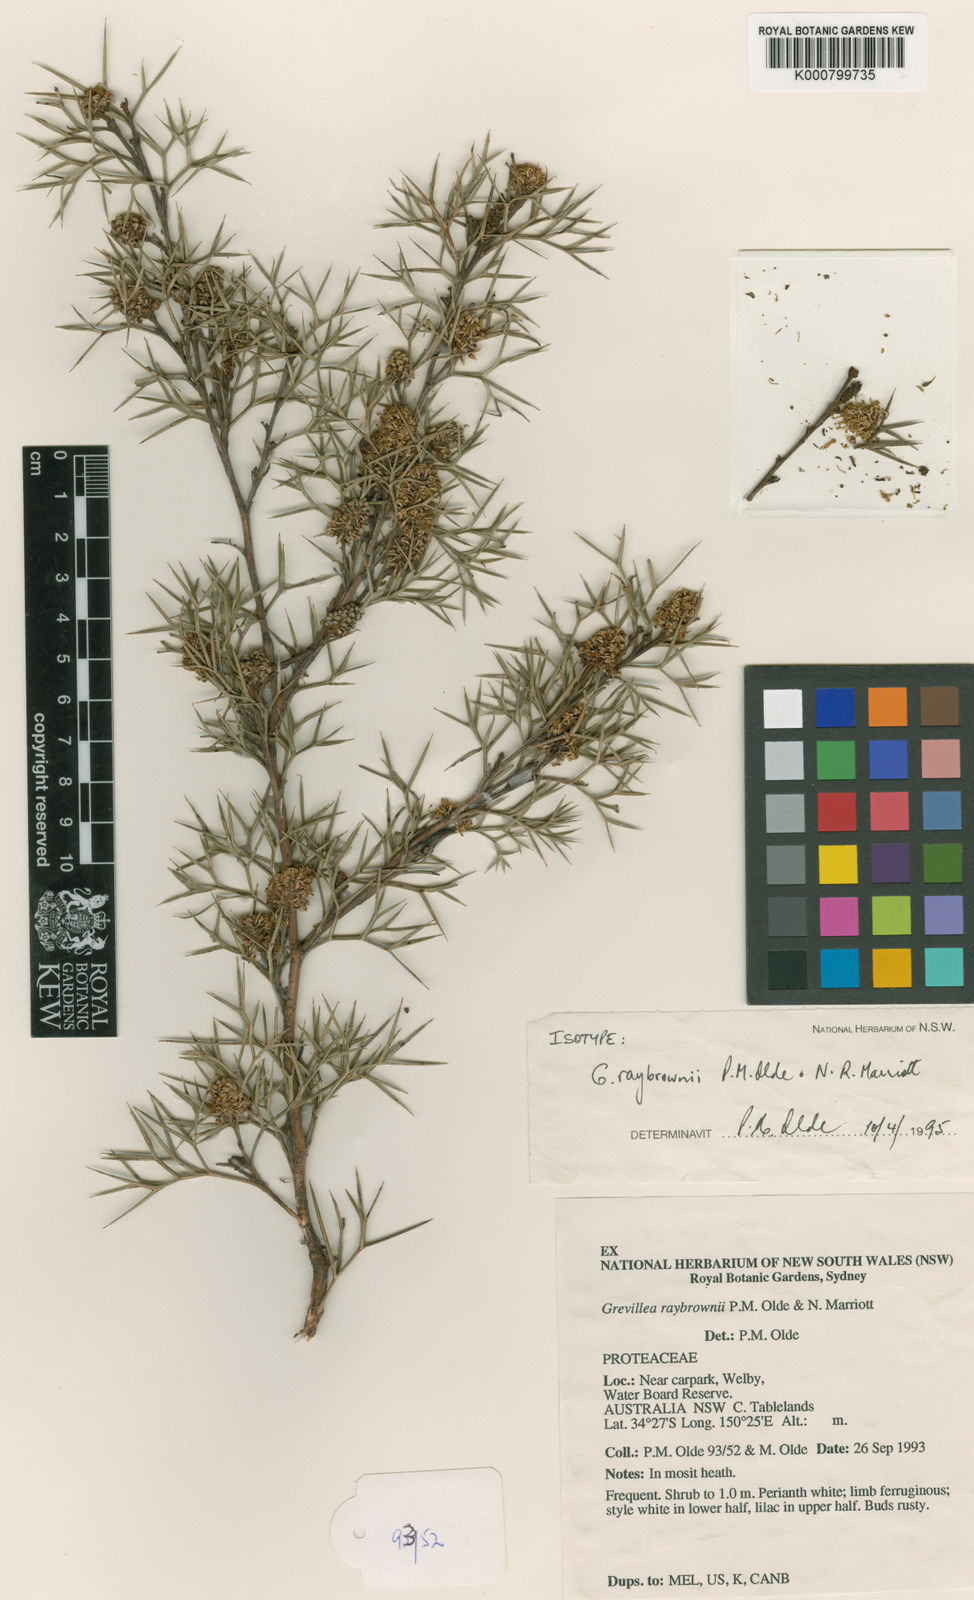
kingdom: Plantae
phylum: Tracheophyta
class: Magnoliopsida
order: Proteales
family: Proteaceae
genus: Grevillea
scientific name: Grevillea raybrownii
